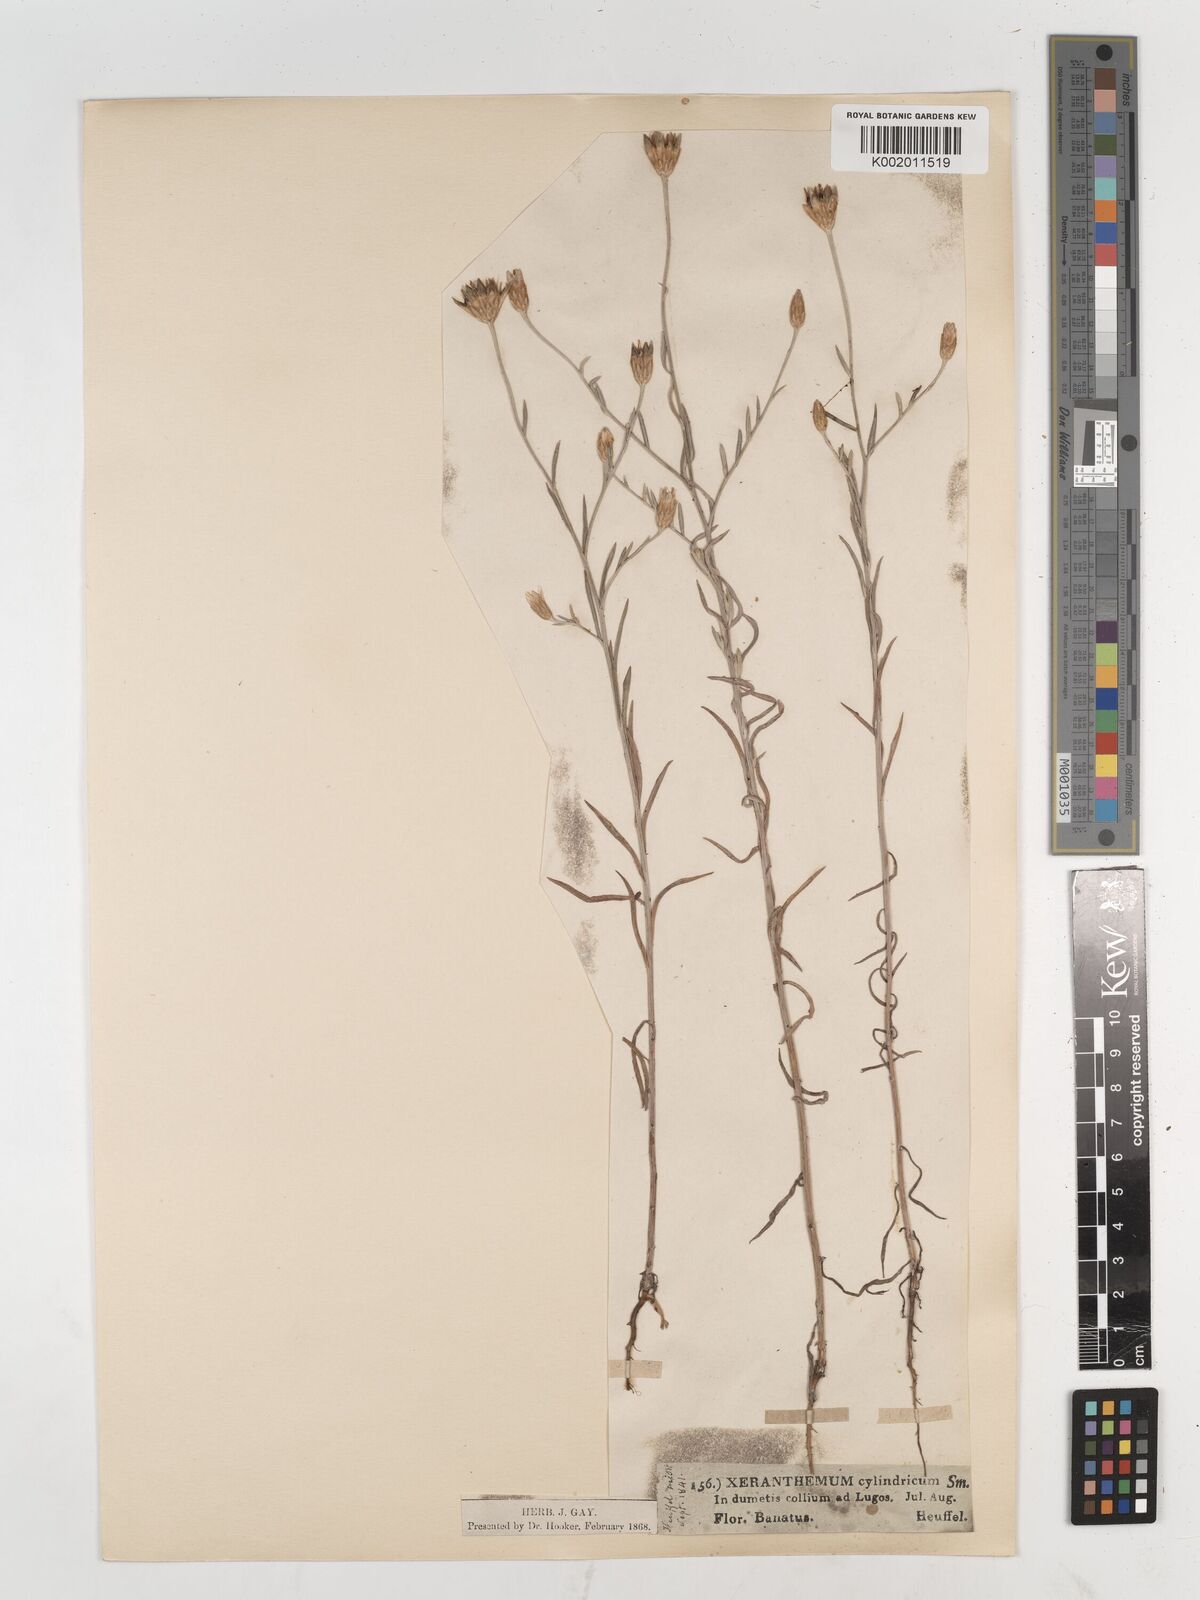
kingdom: Plantae
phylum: Tracheophyta
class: Magnoliopsida
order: Asterales
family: Asteraceae
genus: Xeranthemum
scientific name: Xeranthemum cylindraceum
